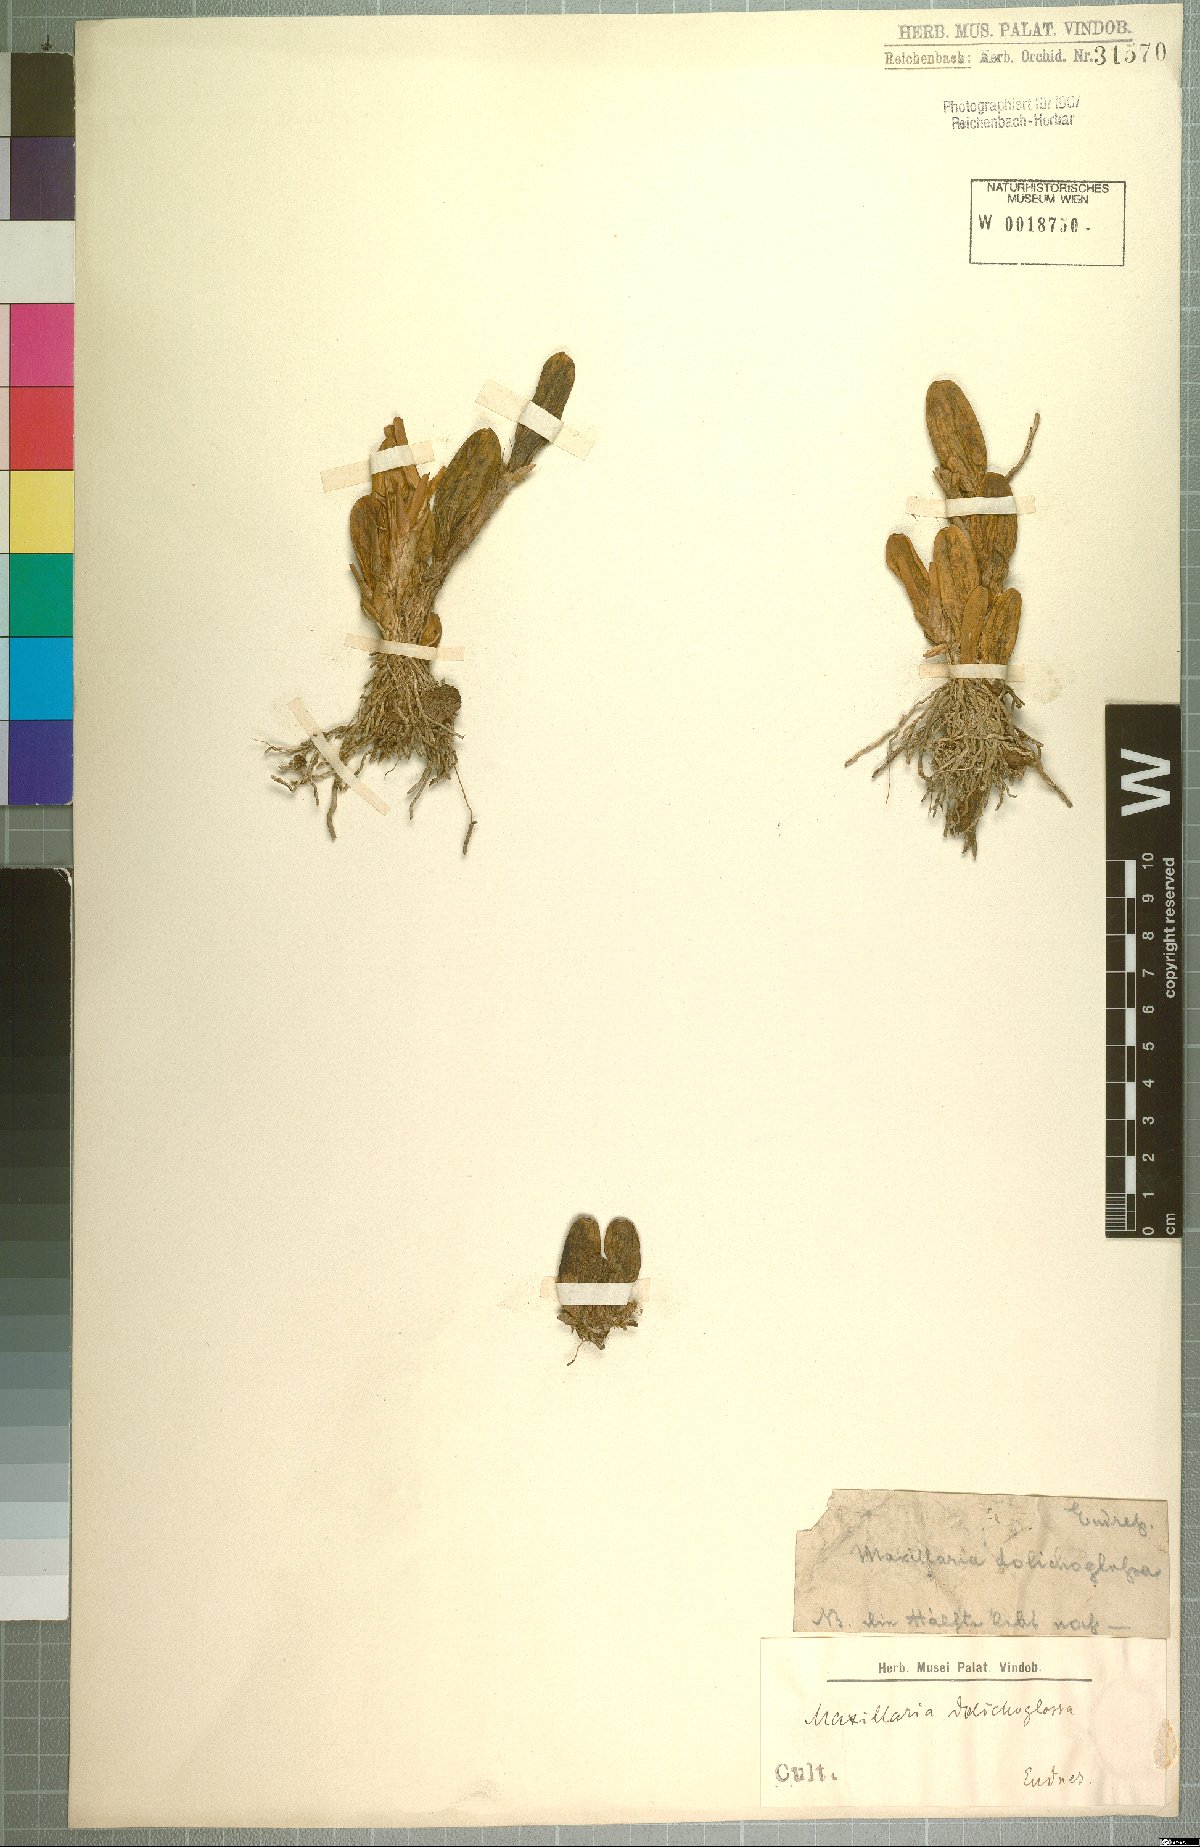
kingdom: Plantae
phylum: Tracheophyta
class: Liliopsida
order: Asparagales
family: Orchidaceae
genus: Maxillaria
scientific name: Maxillaria
